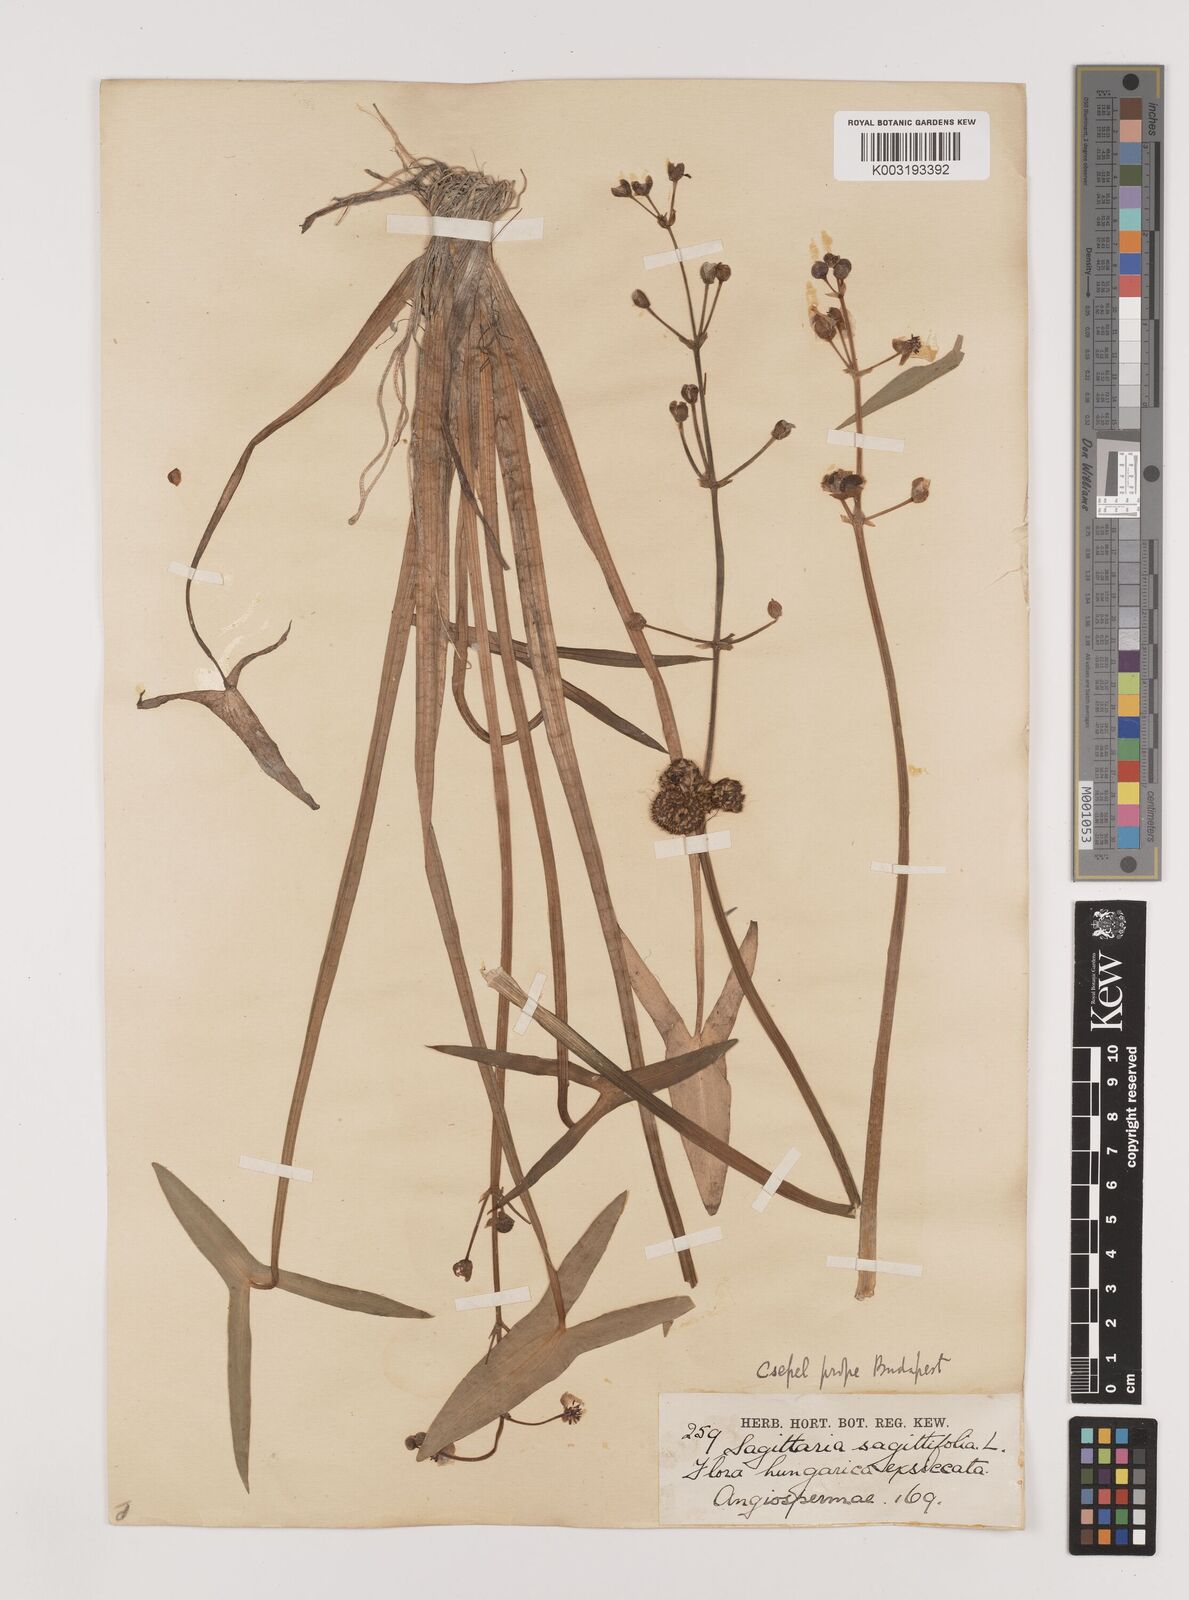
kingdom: Plantae
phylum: Tracheophyta
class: Liliopsida
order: Alismatales
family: Alismataceae
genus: Sagittaria
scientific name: Sagittaria sagittifolia
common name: Arrowhead
